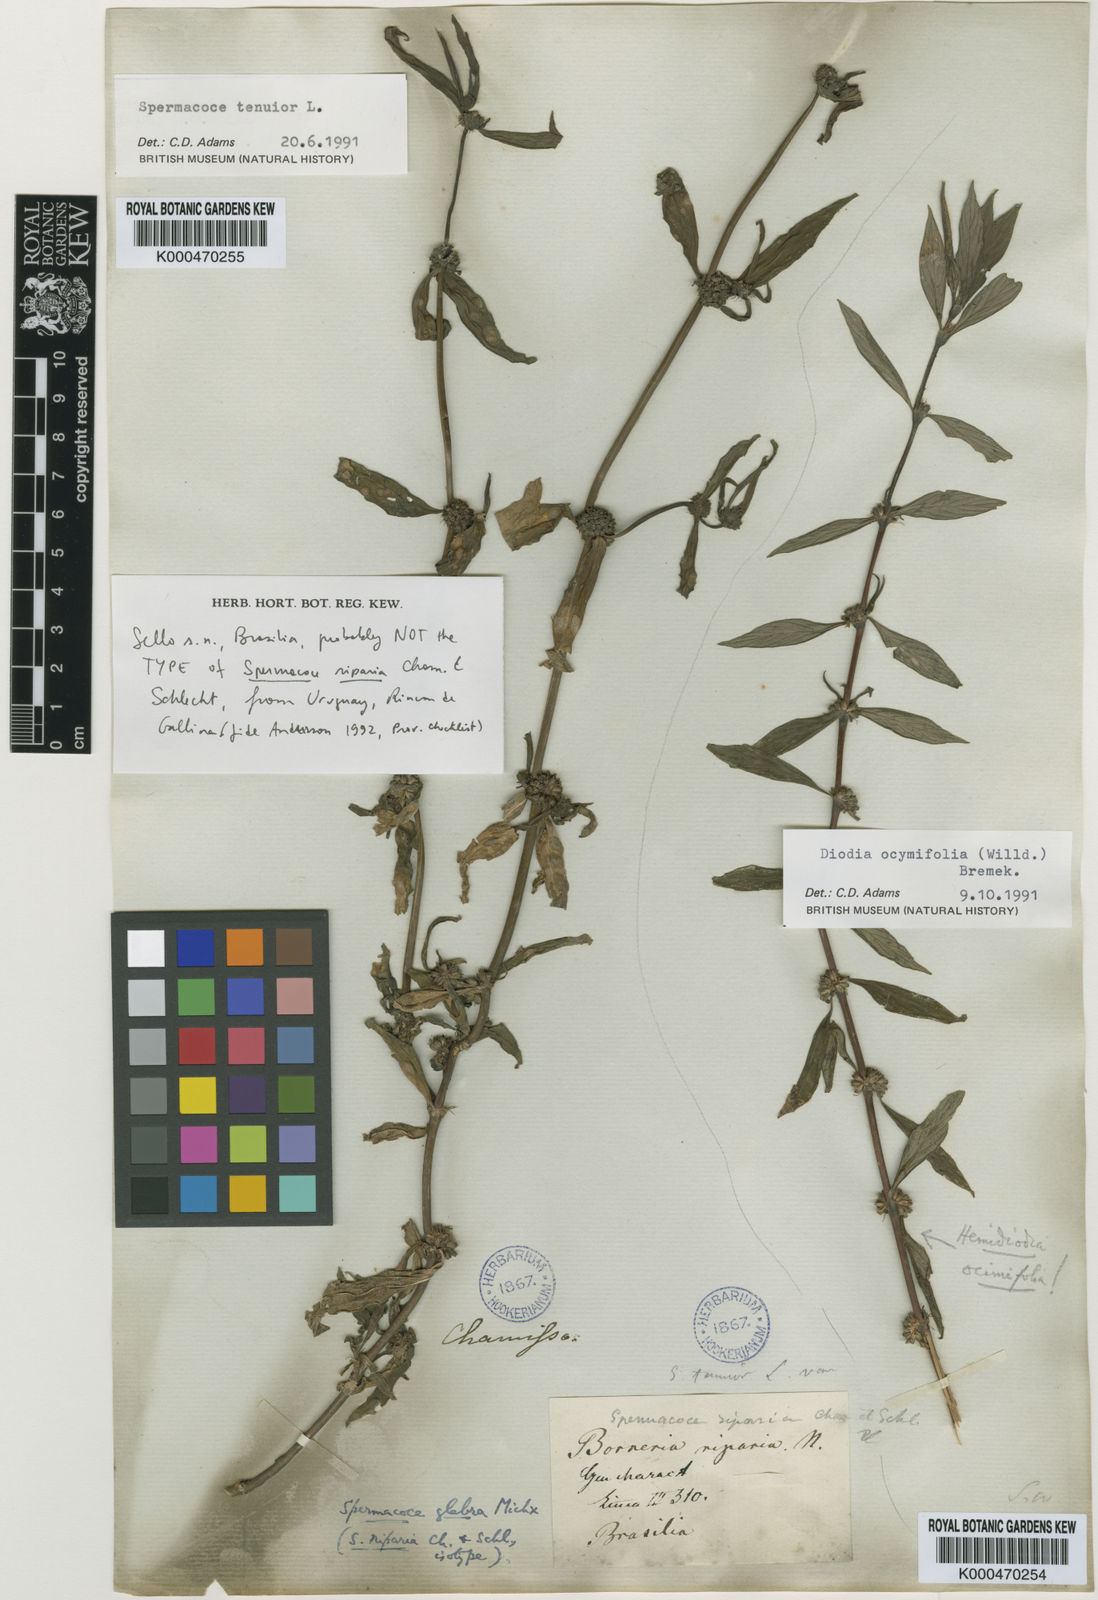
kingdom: Plantae
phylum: Tracheophyta
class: Magnoliopsida
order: Gentianales
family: Rubiaceae
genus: Hexasepalum
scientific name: Hexasepalum teres
